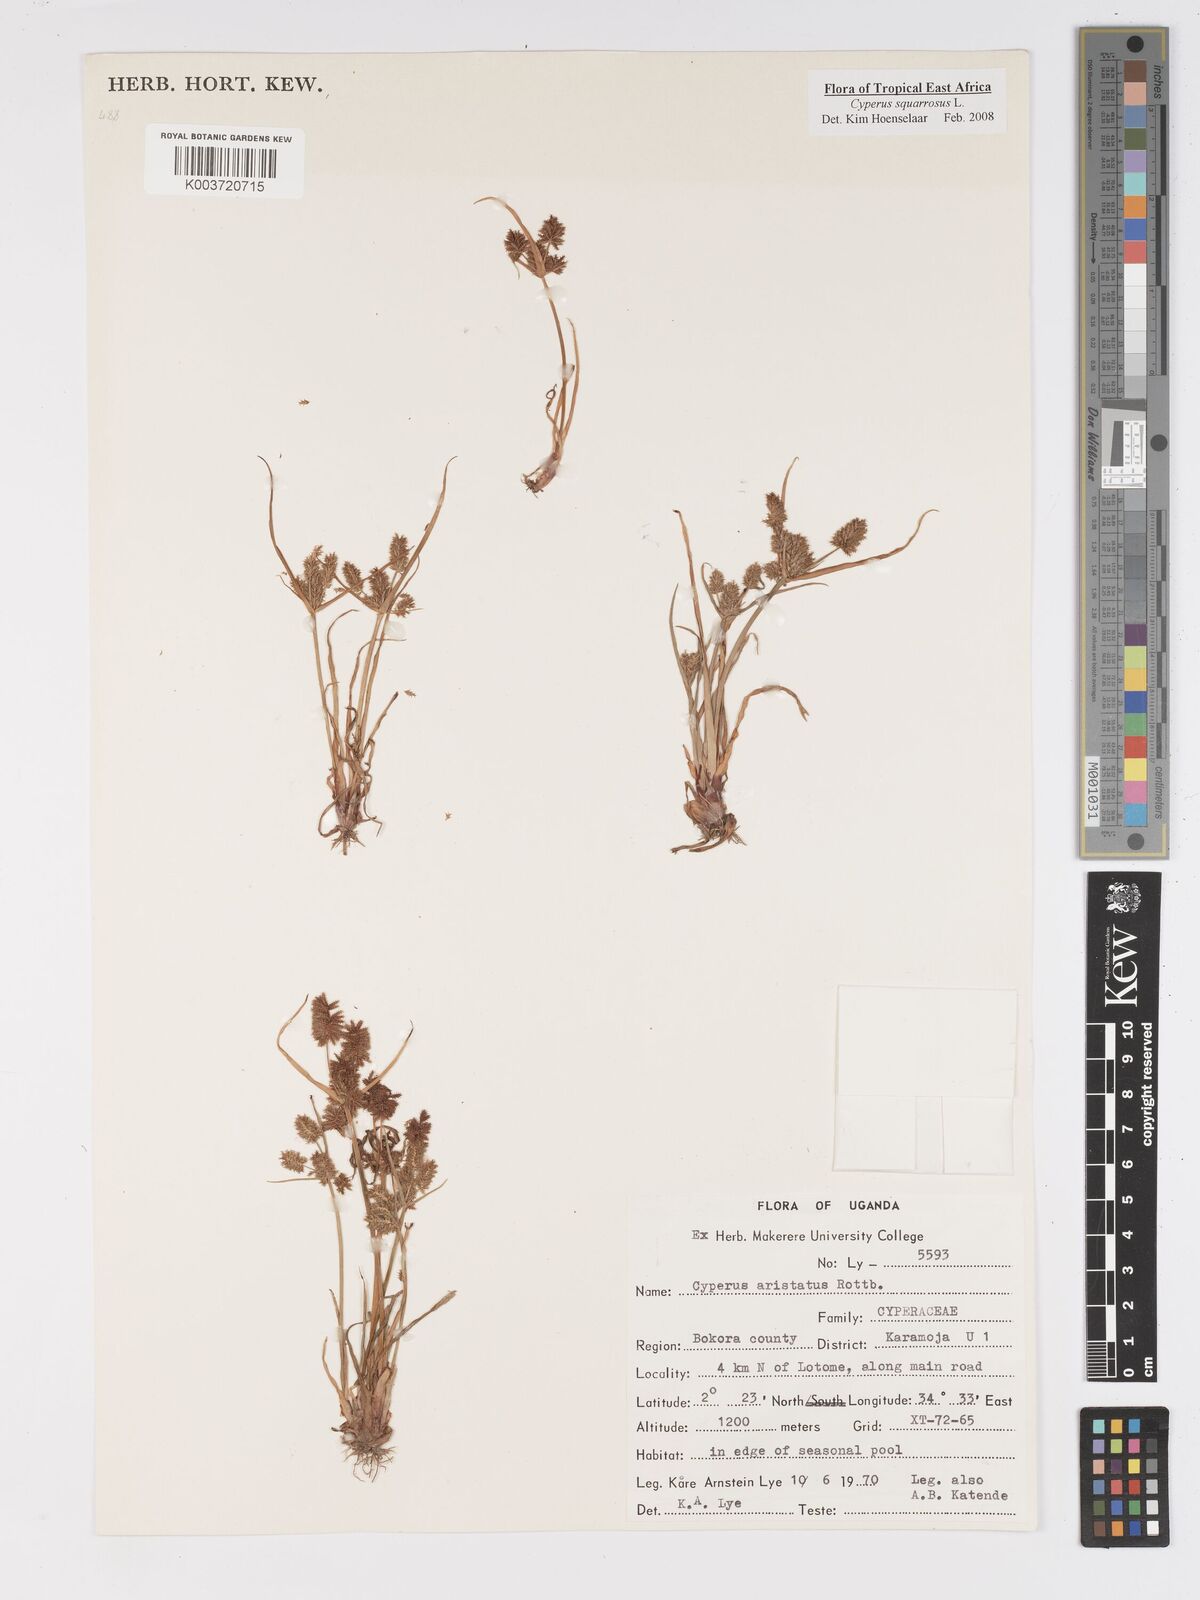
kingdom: Plantae
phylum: Tracheophyta
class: Liliopsida
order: Poales
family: Cyperaceae
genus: Cyperus
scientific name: Cyperus squarrosus
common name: Awned cyperus
